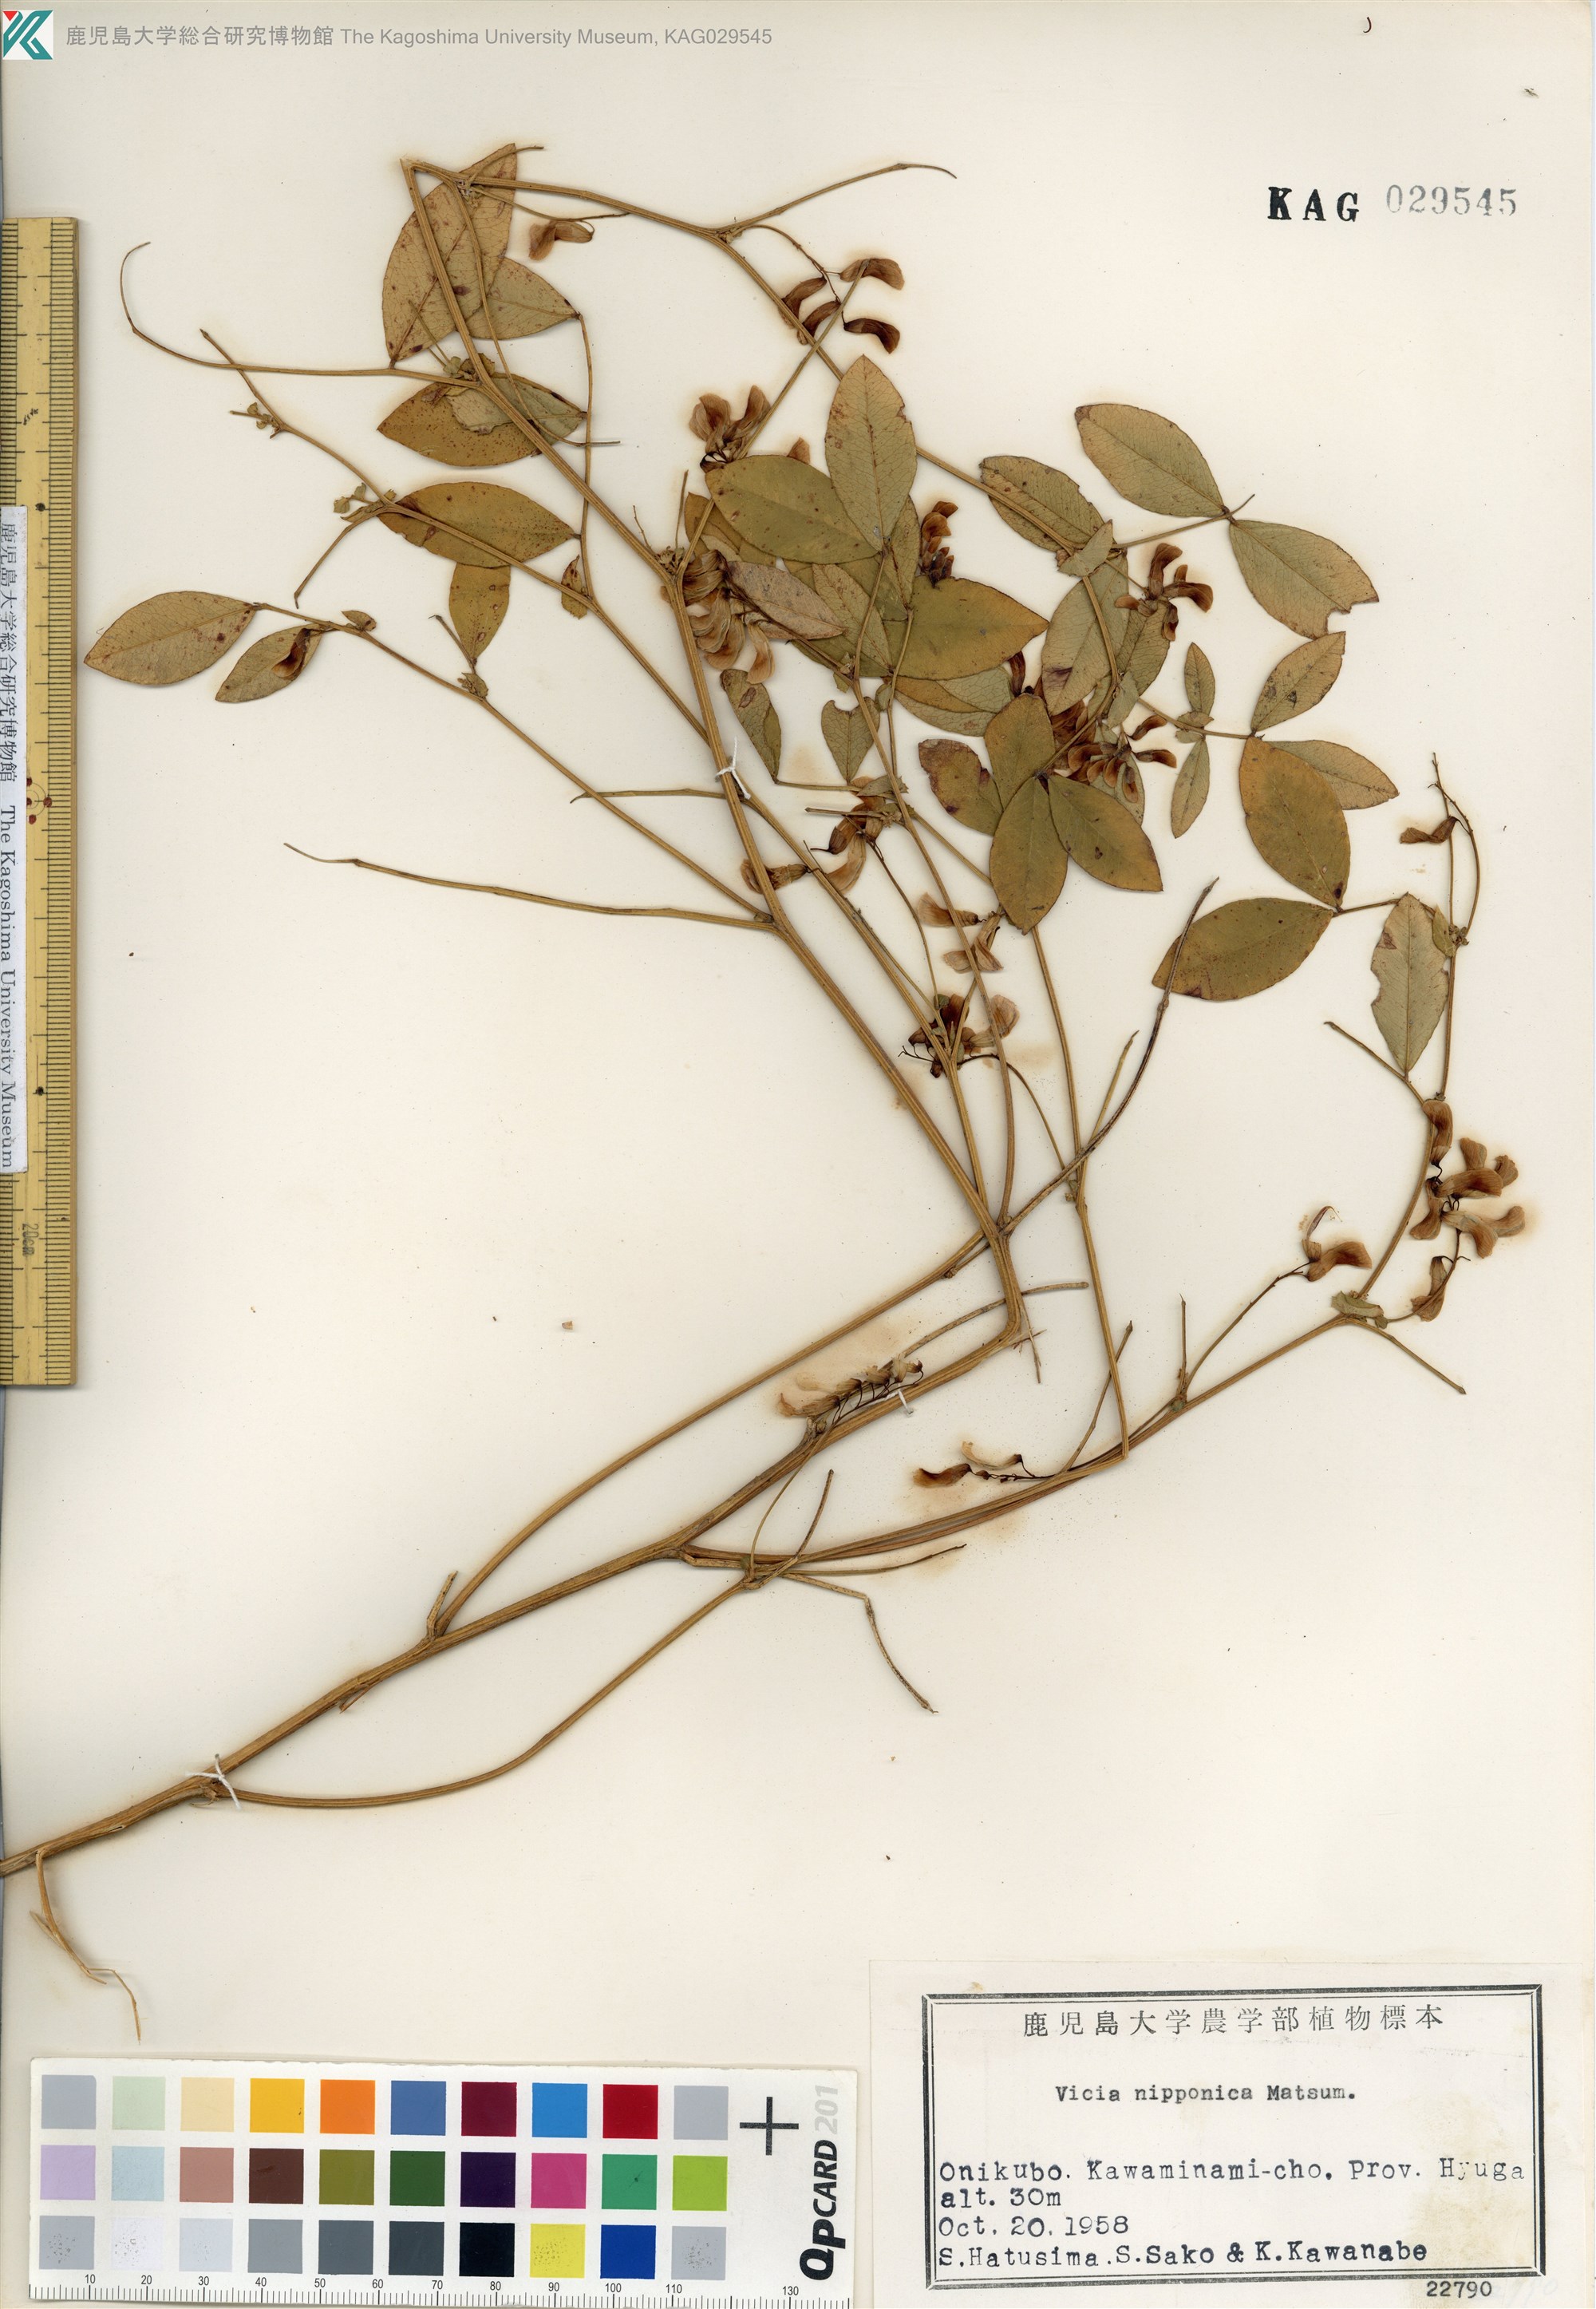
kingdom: Plantae
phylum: Tracheophyta
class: Magnoliopsida
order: Fabales
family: Fabaceae
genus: Vicia
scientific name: Vicia nipponica
